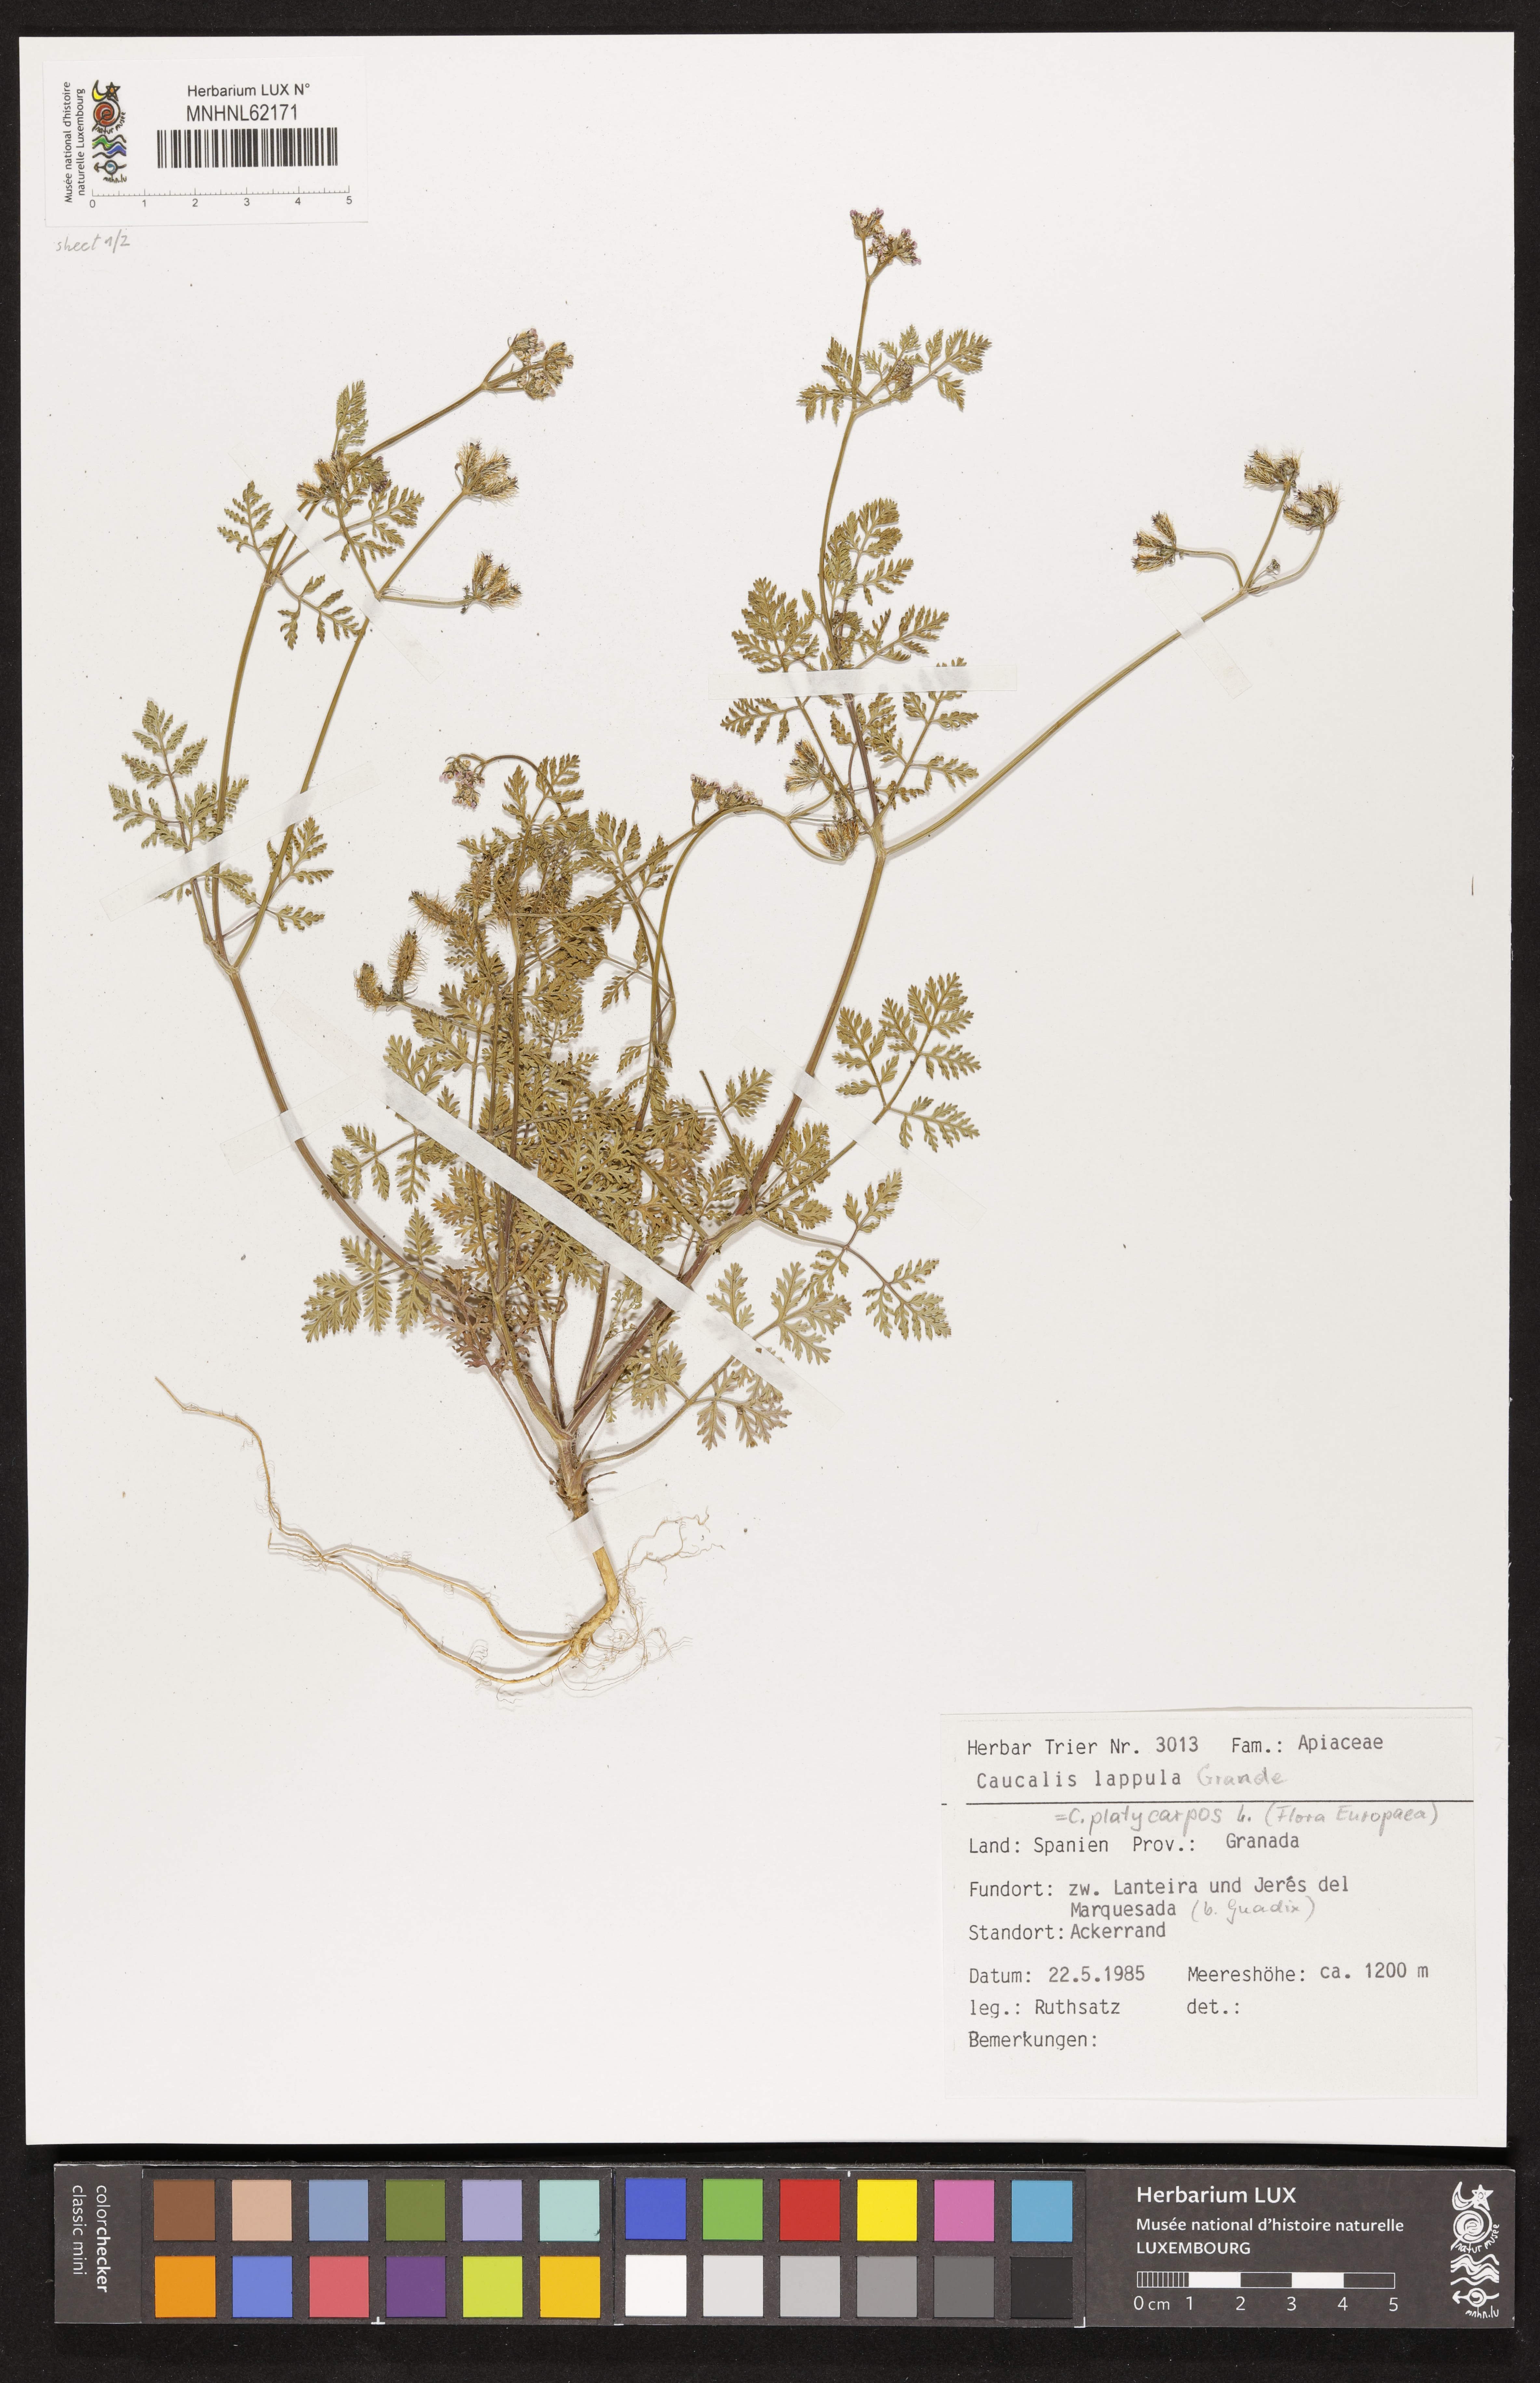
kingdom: Plantae
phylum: Tracheophyta
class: Magnoliopsida
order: Apiales
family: Apiaceae
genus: Caucalis
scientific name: Caucalis platycarpos
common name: Small bur-parsley
